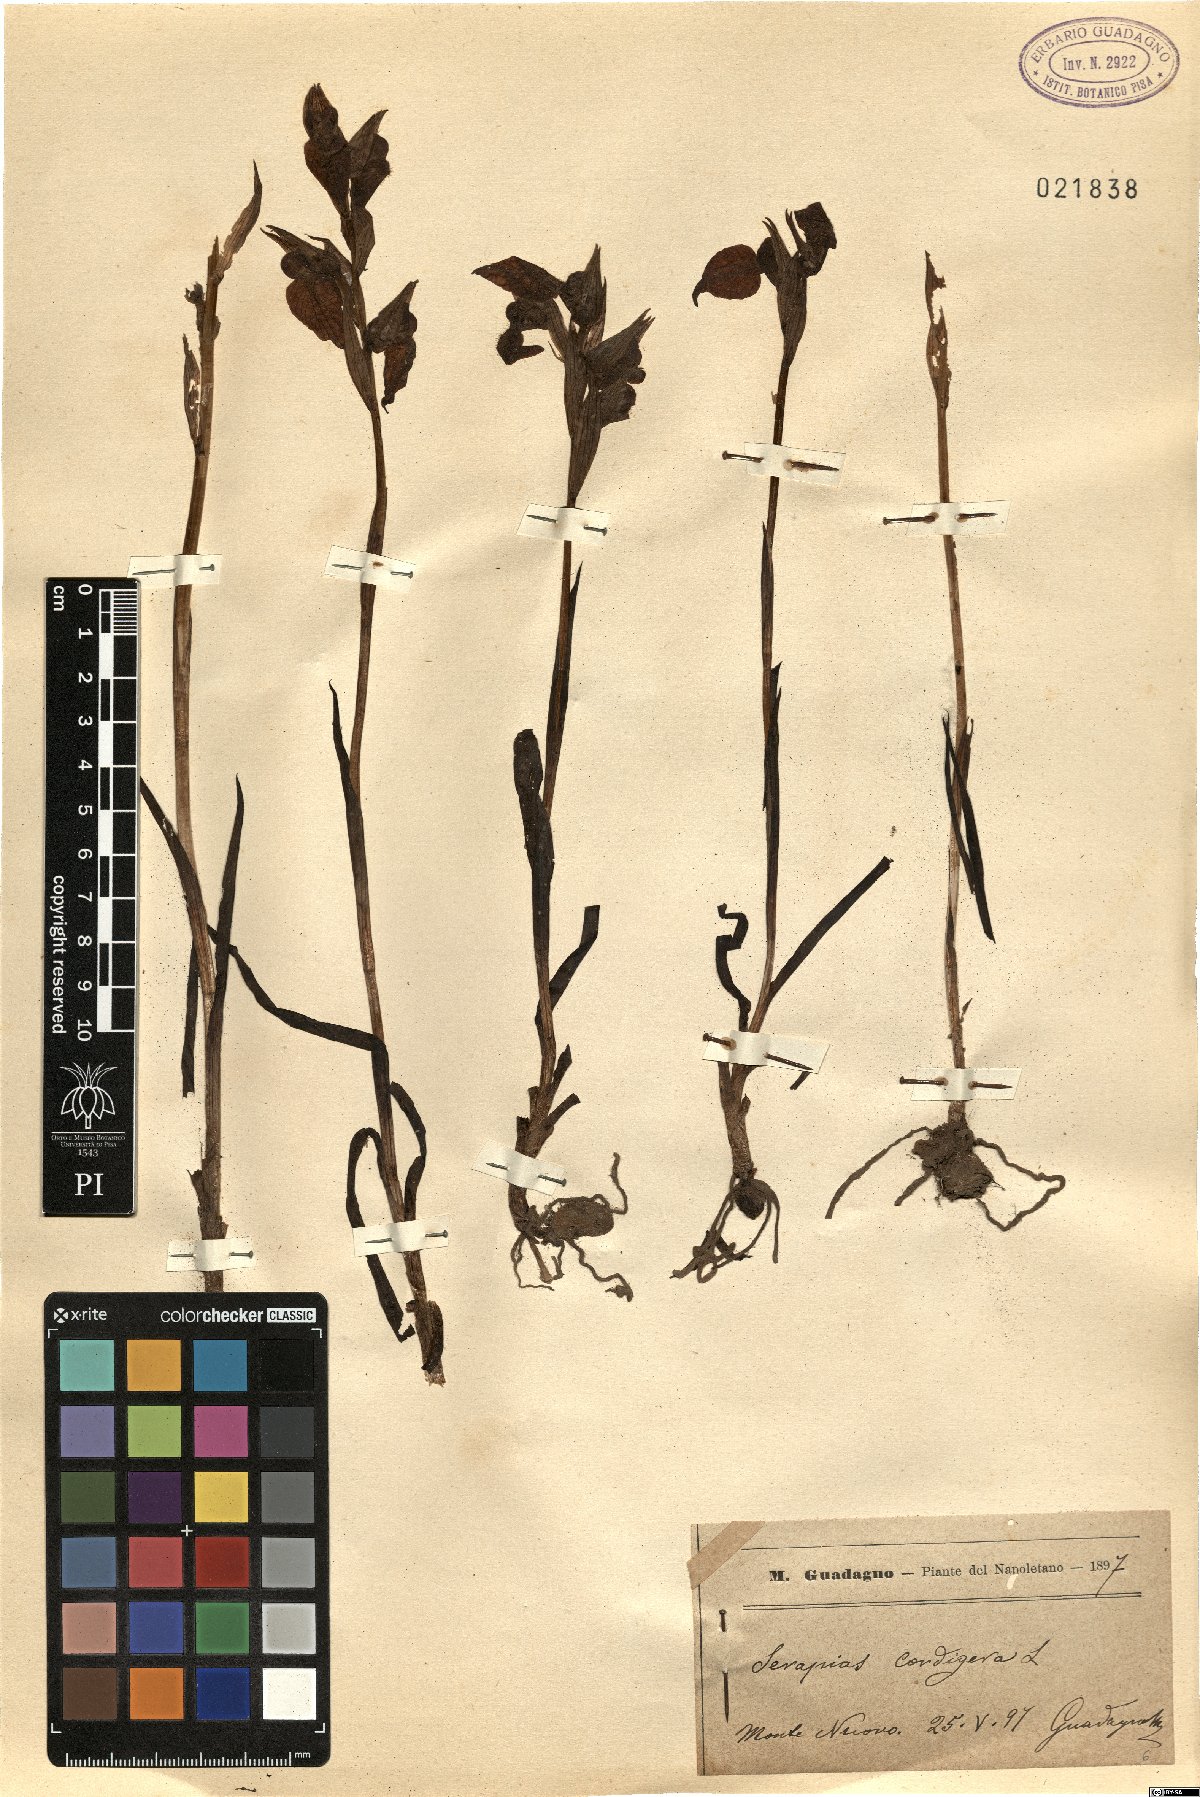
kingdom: Plantae
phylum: Tracheophyta
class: Liliopsida
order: Asparagales
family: Orchidaceae
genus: Serapias
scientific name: Serapias cordigera
